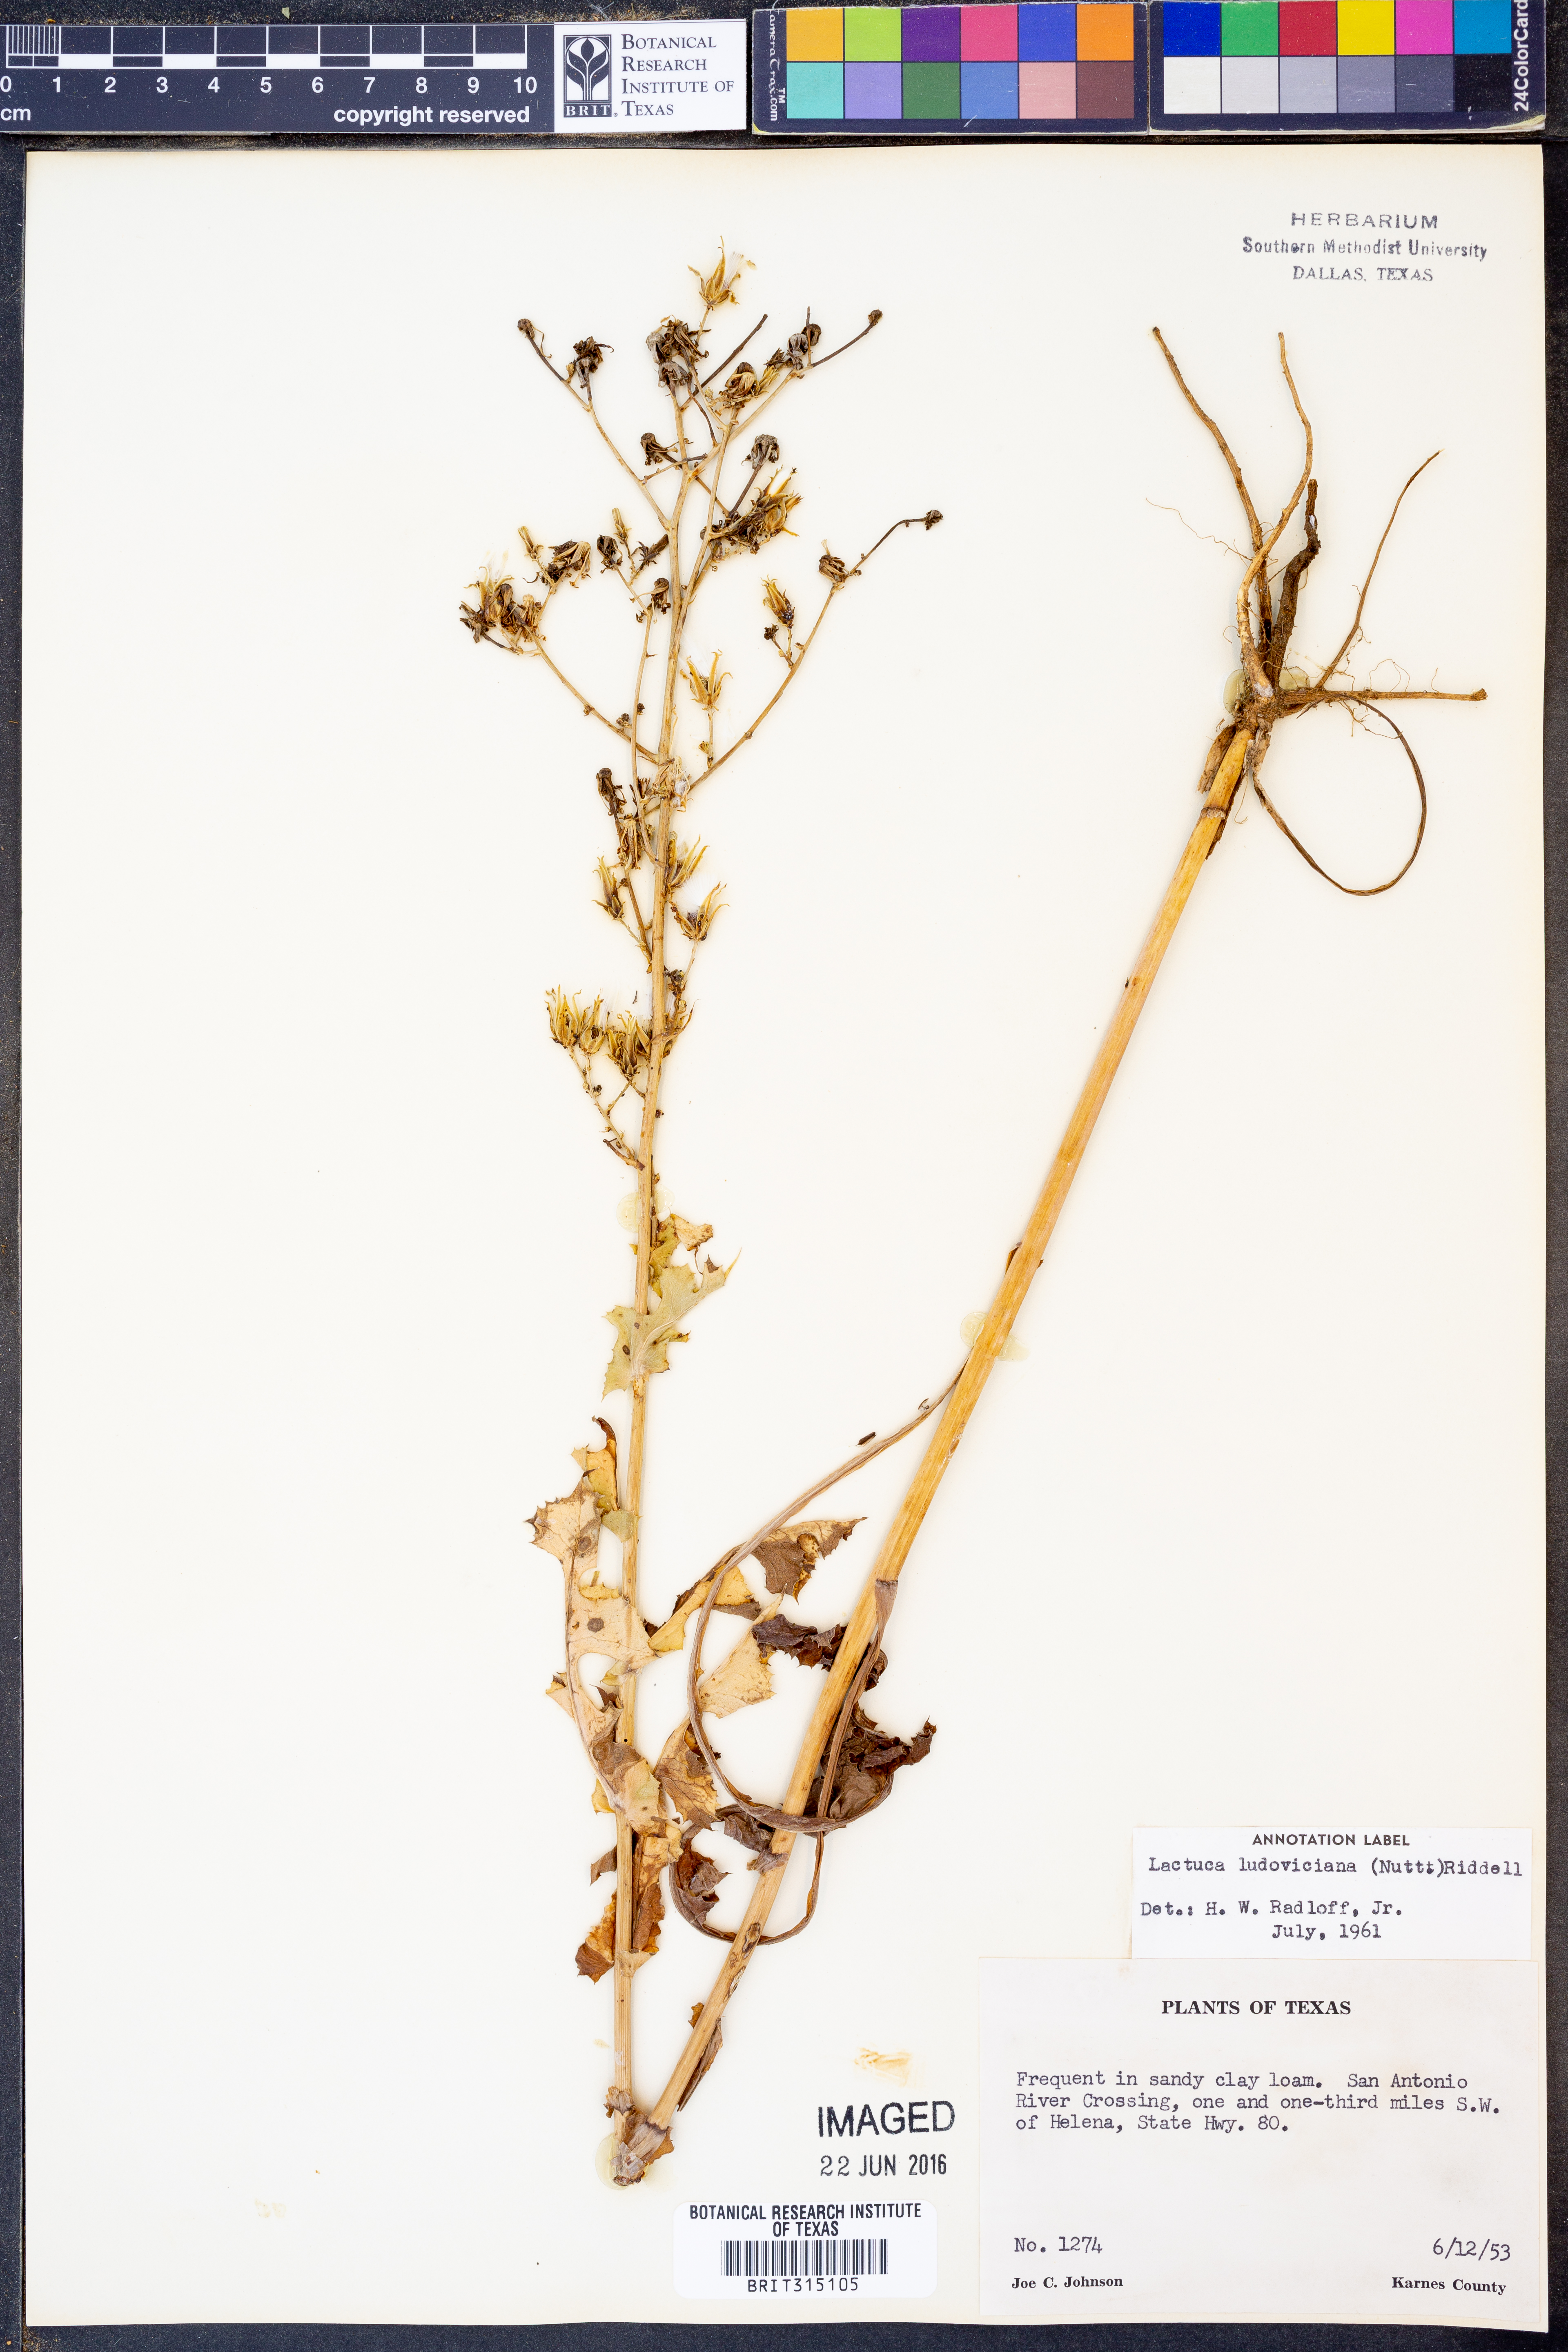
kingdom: Plantae
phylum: Tracheophyta
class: Magnoliopsida
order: Asterales
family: Asteraceae
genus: Lactuca
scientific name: Lactuca ludoviciana
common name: Louisiana lettuce
